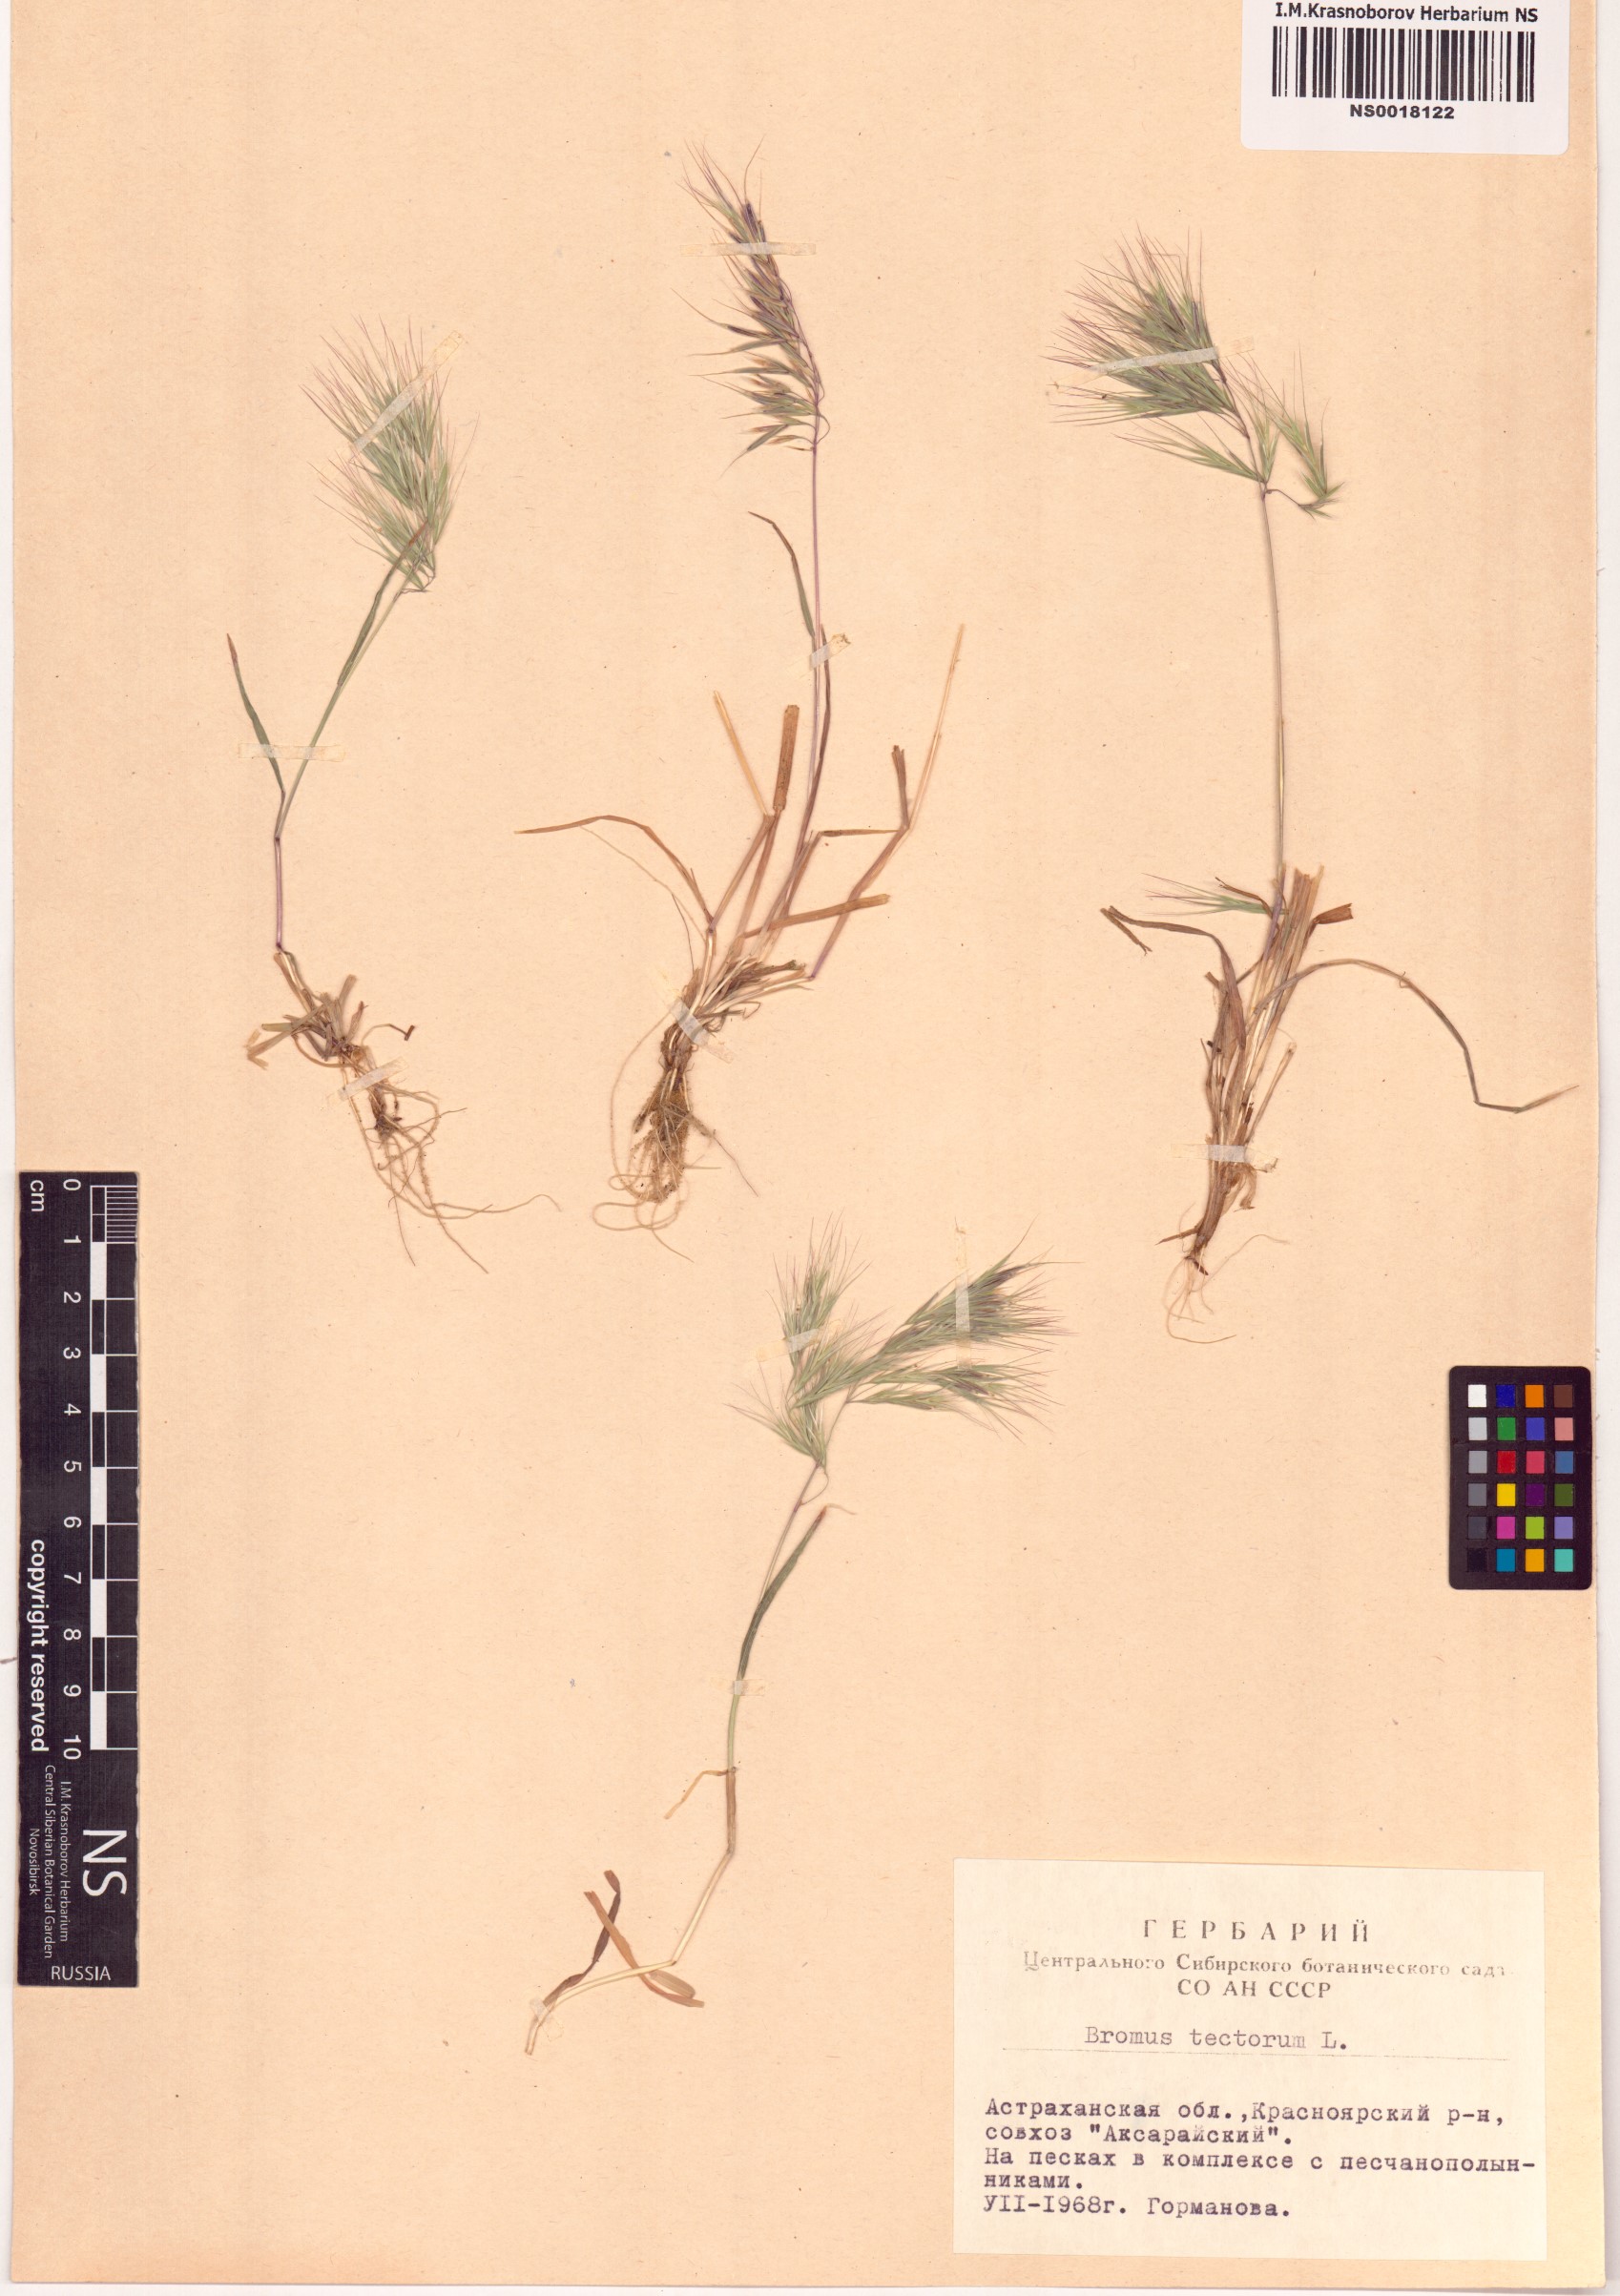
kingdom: Plantae
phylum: Tracheophyta
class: Liliopsida
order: Poales
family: Poaceae
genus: Bromus
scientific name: Bromus tectorum
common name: Cheatgrass
